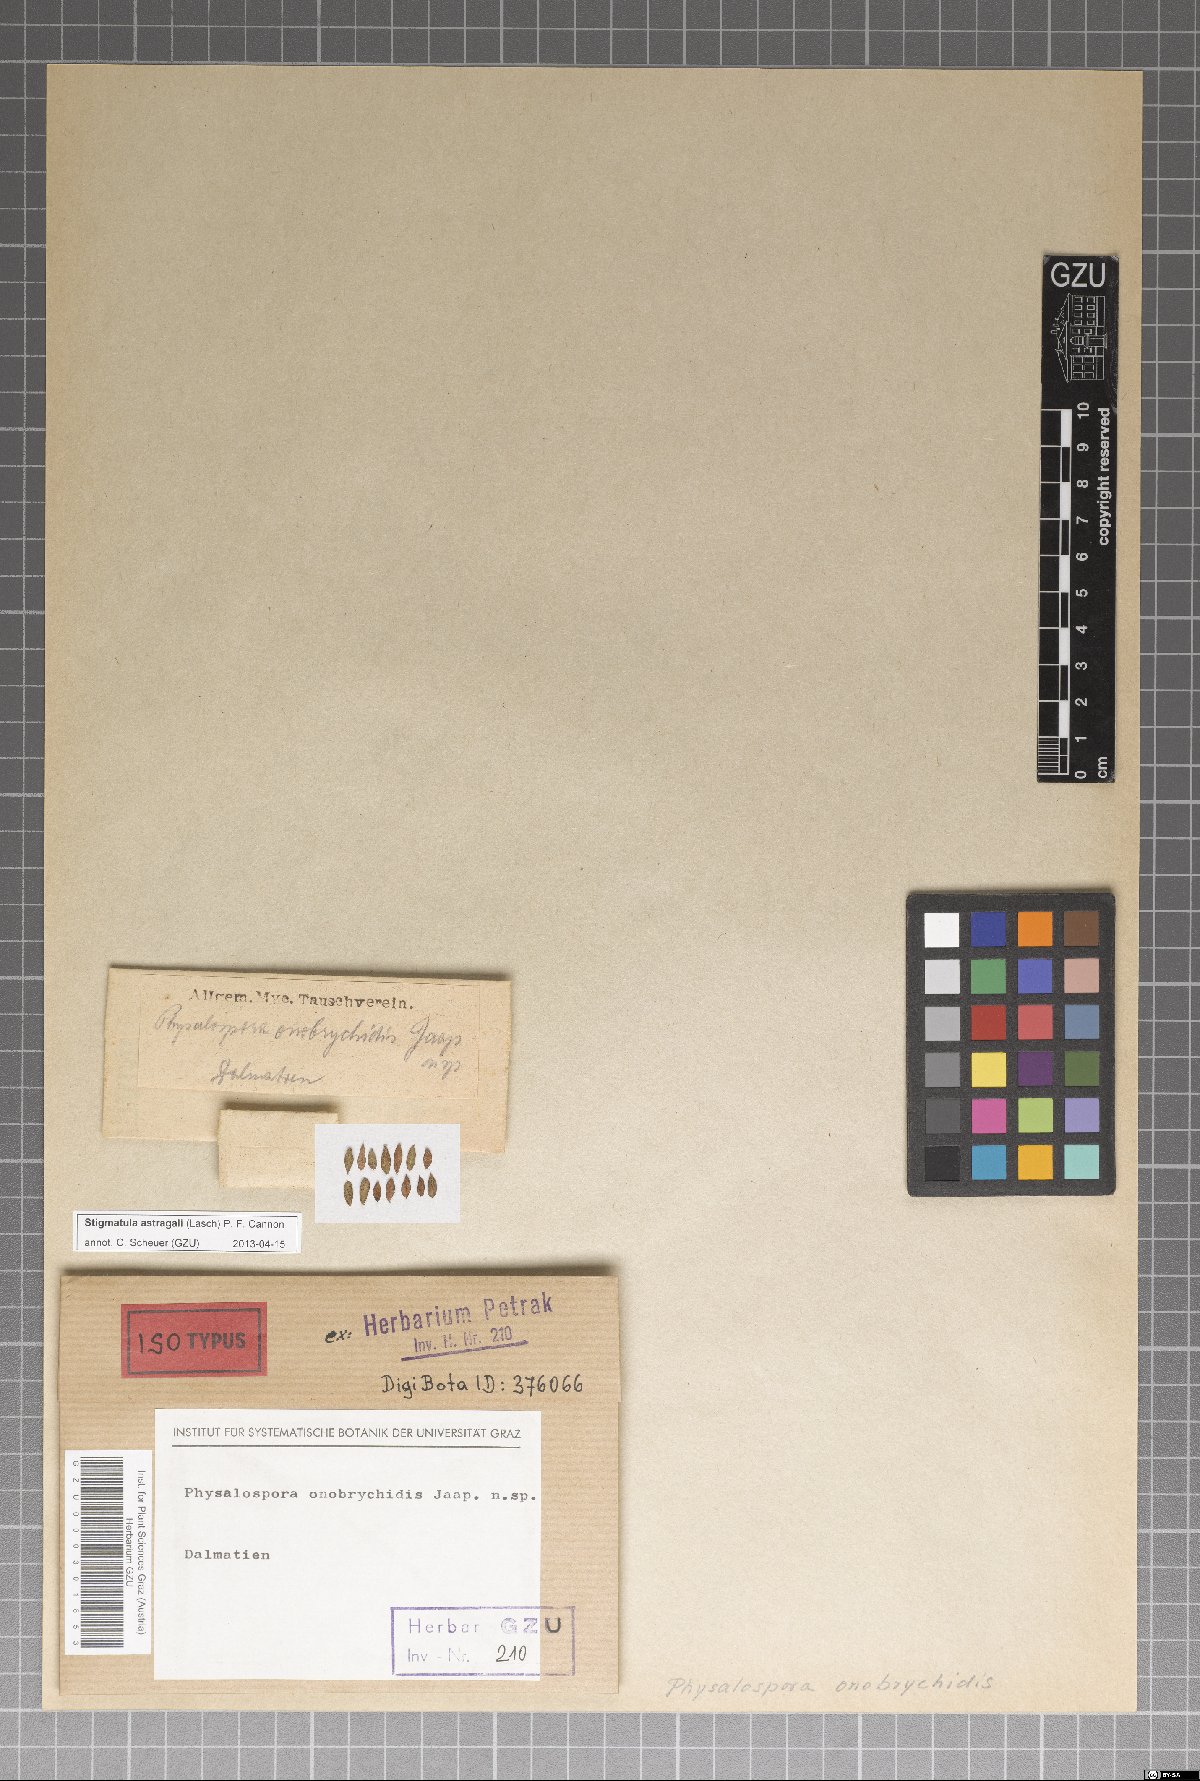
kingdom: Fungi
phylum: Ascomycota
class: Sordariomycetes
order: Phyllachorales
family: Phyllachoraceae
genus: Stigmatula
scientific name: Stigmatula astragali
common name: Milk vetch dotty
